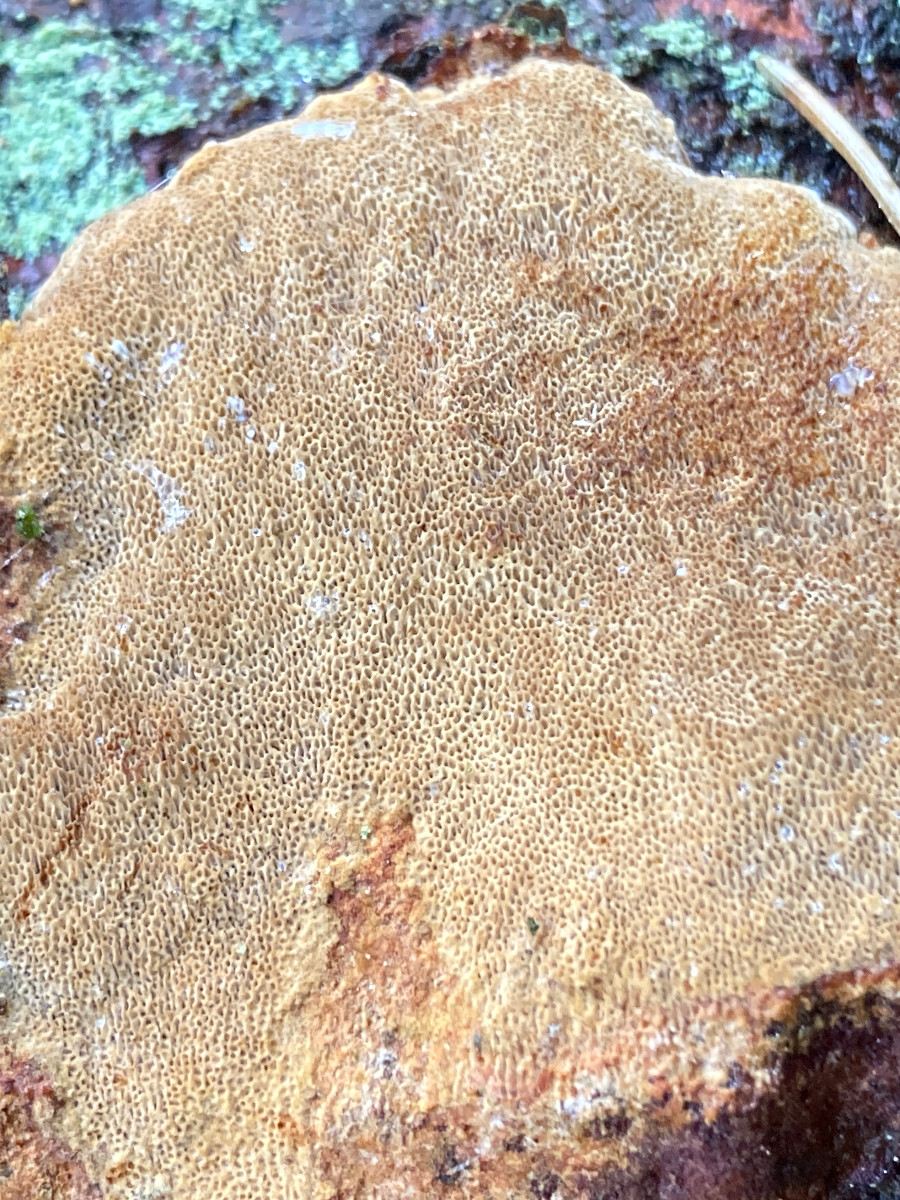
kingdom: Fungi
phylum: Basidiomycota
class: Agaricomycetes
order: Hymenochaetales
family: Hymenochaetaceae
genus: Fuscoporia
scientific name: Fuscoporia ferrea
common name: skorpe-ildporesvamp
